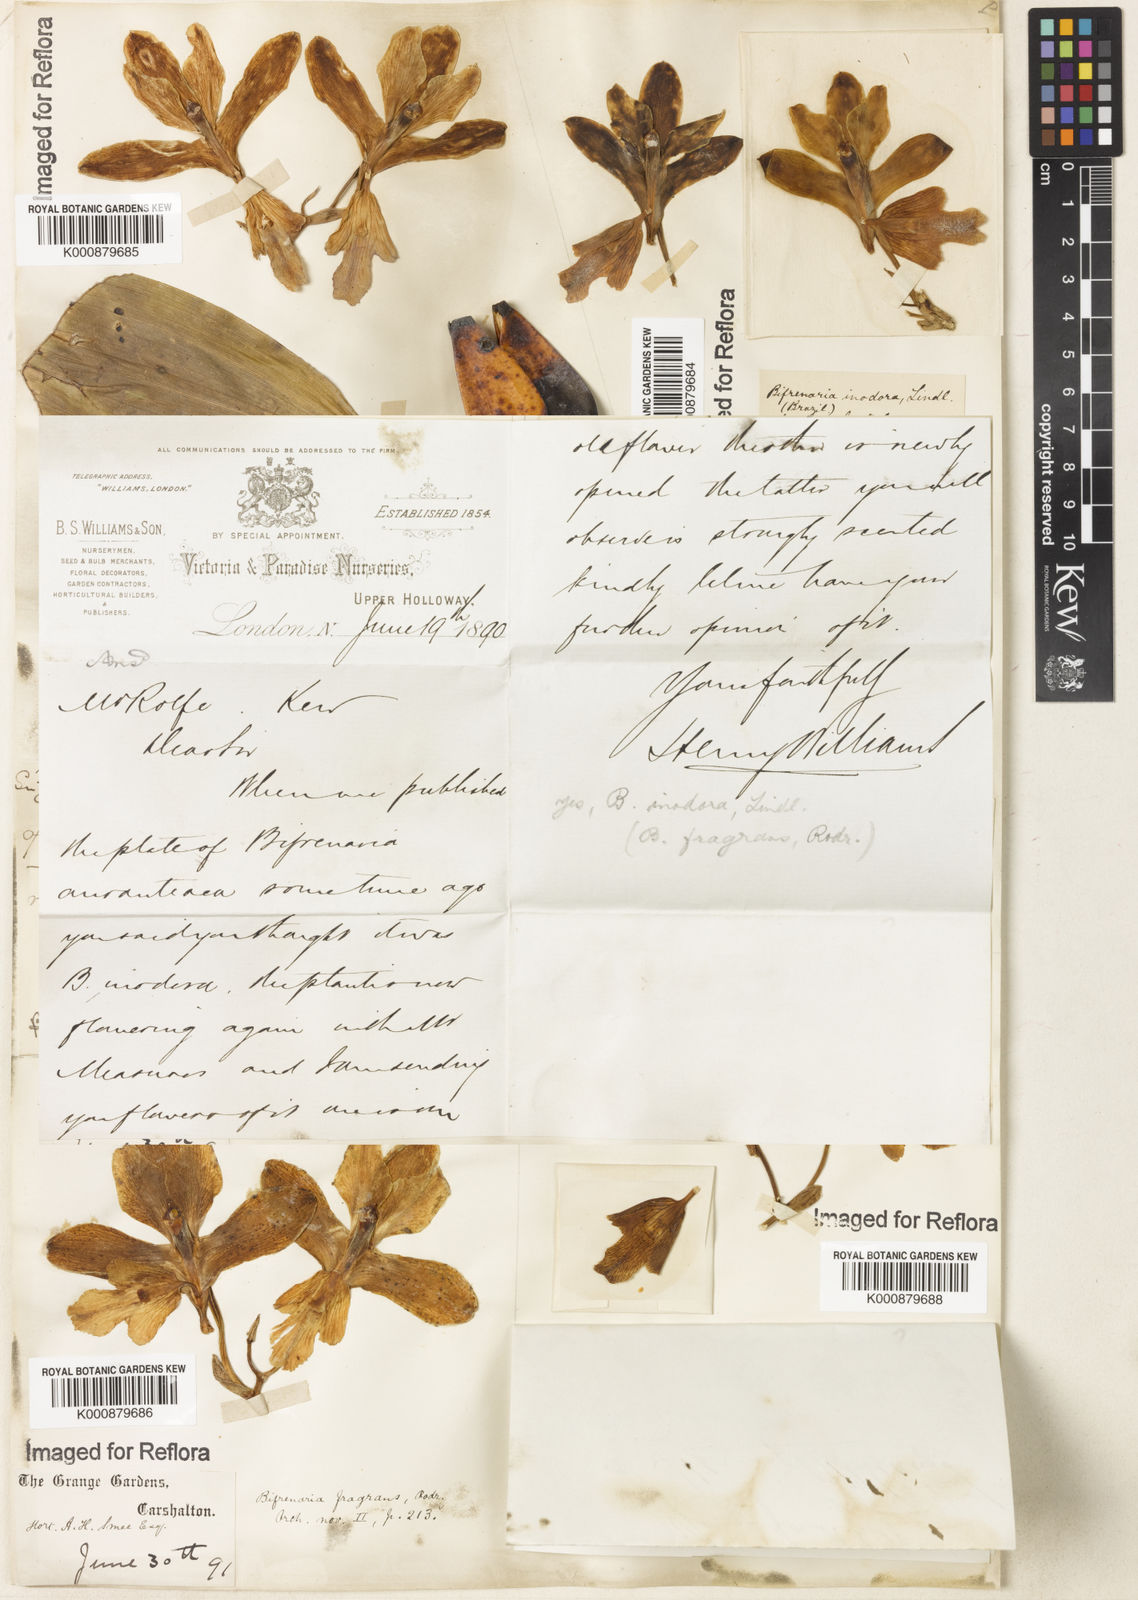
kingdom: Plantae
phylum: Tracheophyta
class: Liliopsida
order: Asparagales
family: Orchidaceae
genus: Bifrenaria
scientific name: Bifrenaria inodora
